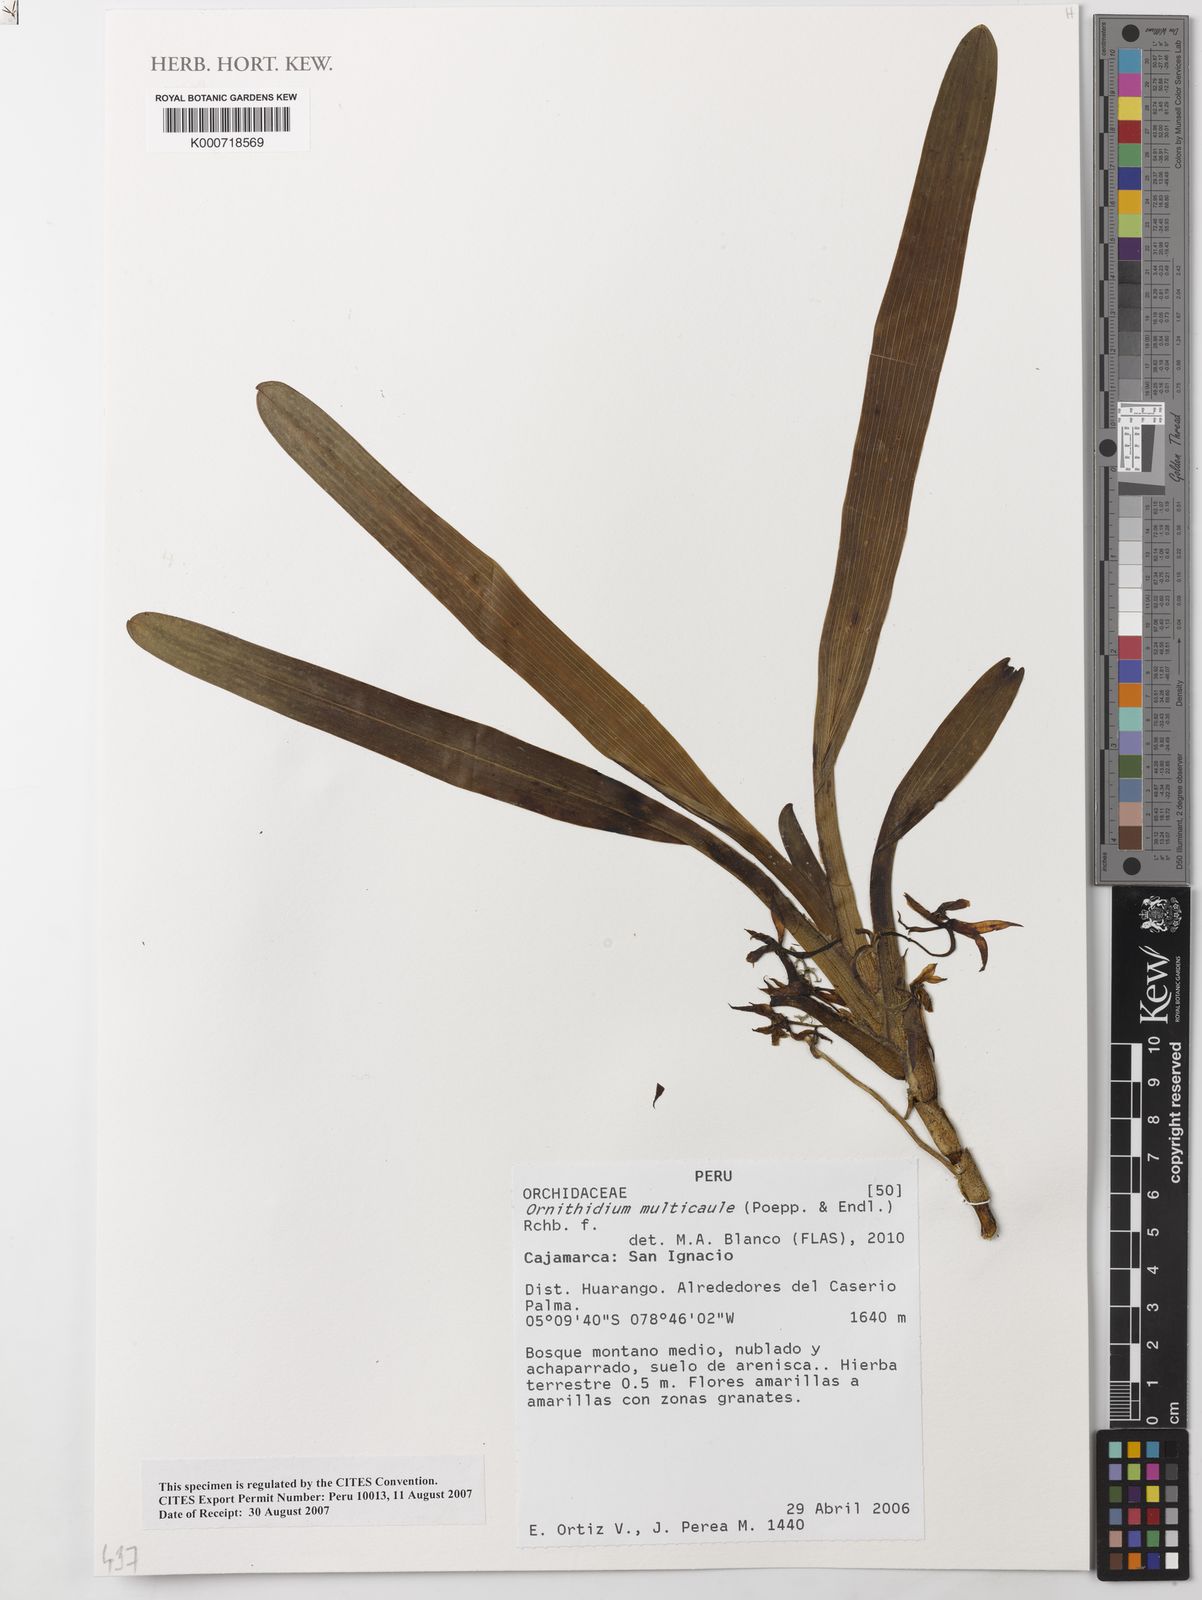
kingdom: Plantae
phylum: Tracheophyta
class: Liliopsida
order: Asparagales
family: Orchidaceae
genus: Maxillaria
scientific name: Maxillaria multicaulis
